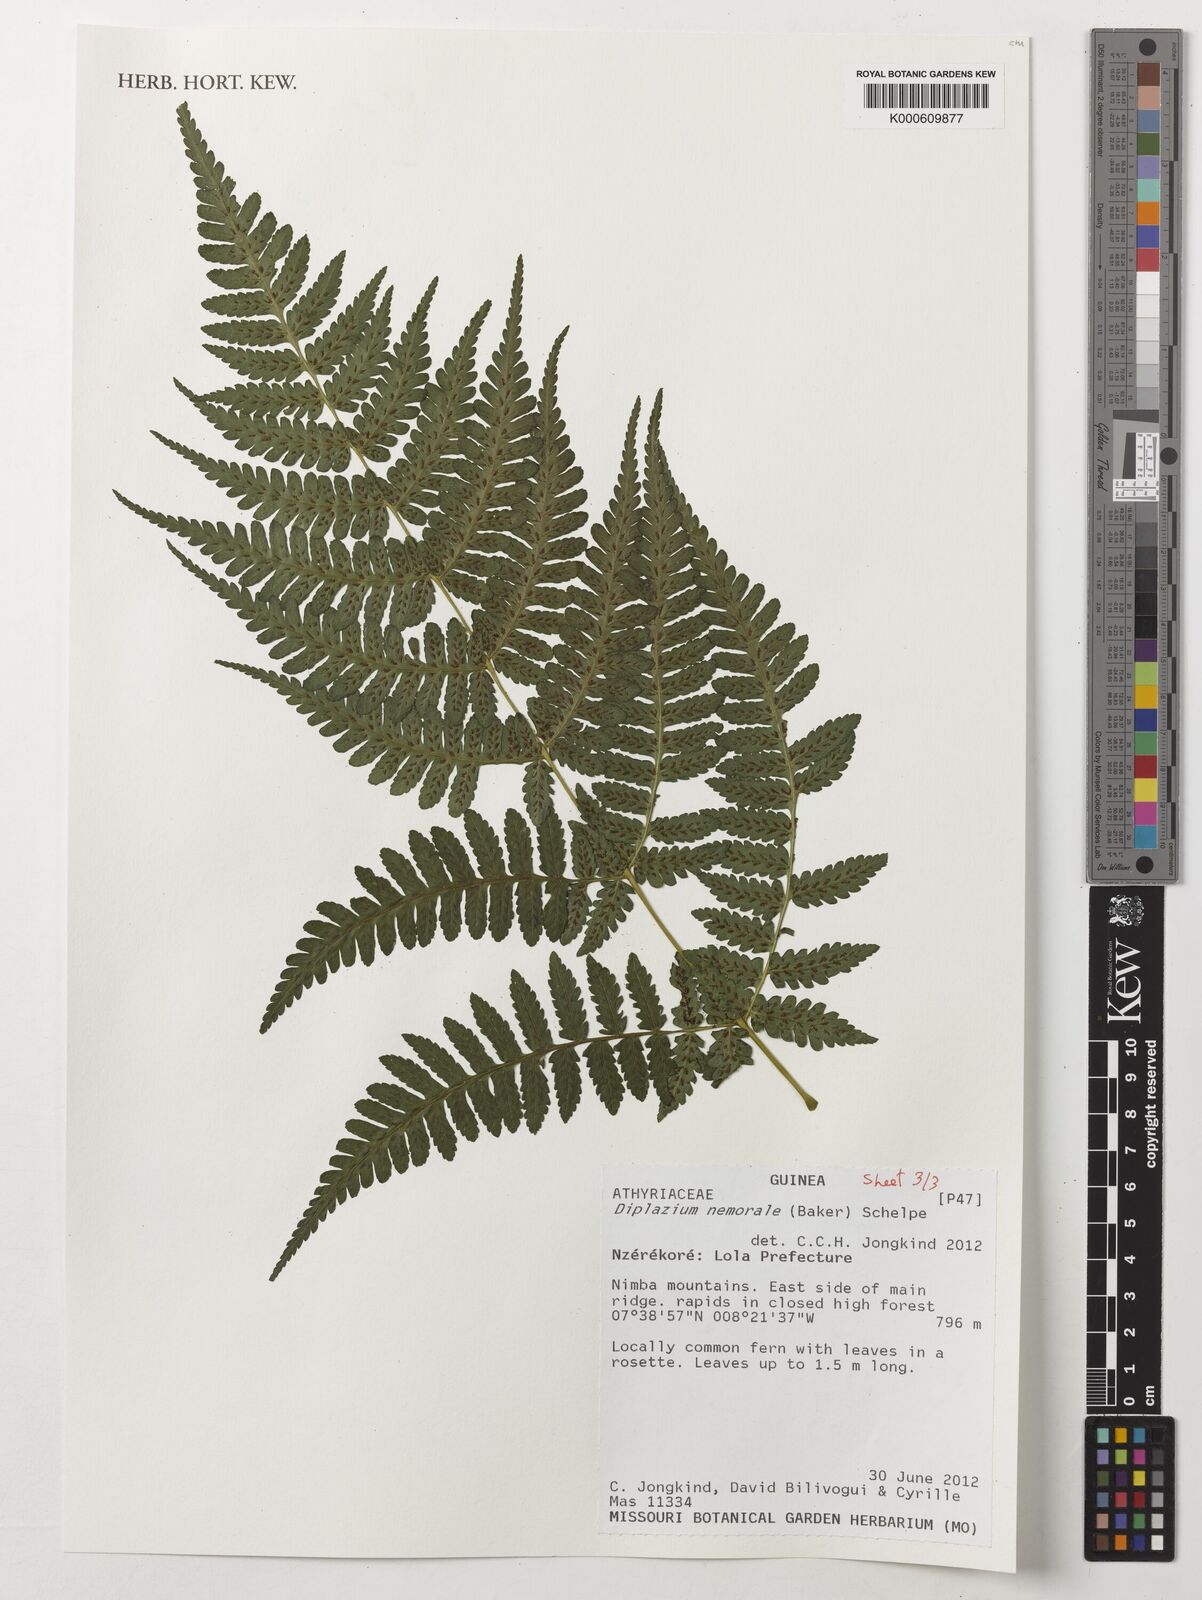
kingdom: Plantae
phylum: Tracheophyta
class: Polypodiopsida
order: Polypodiales
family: Athyriaceae
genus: Diplazium
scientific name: Diplazium nemorale
